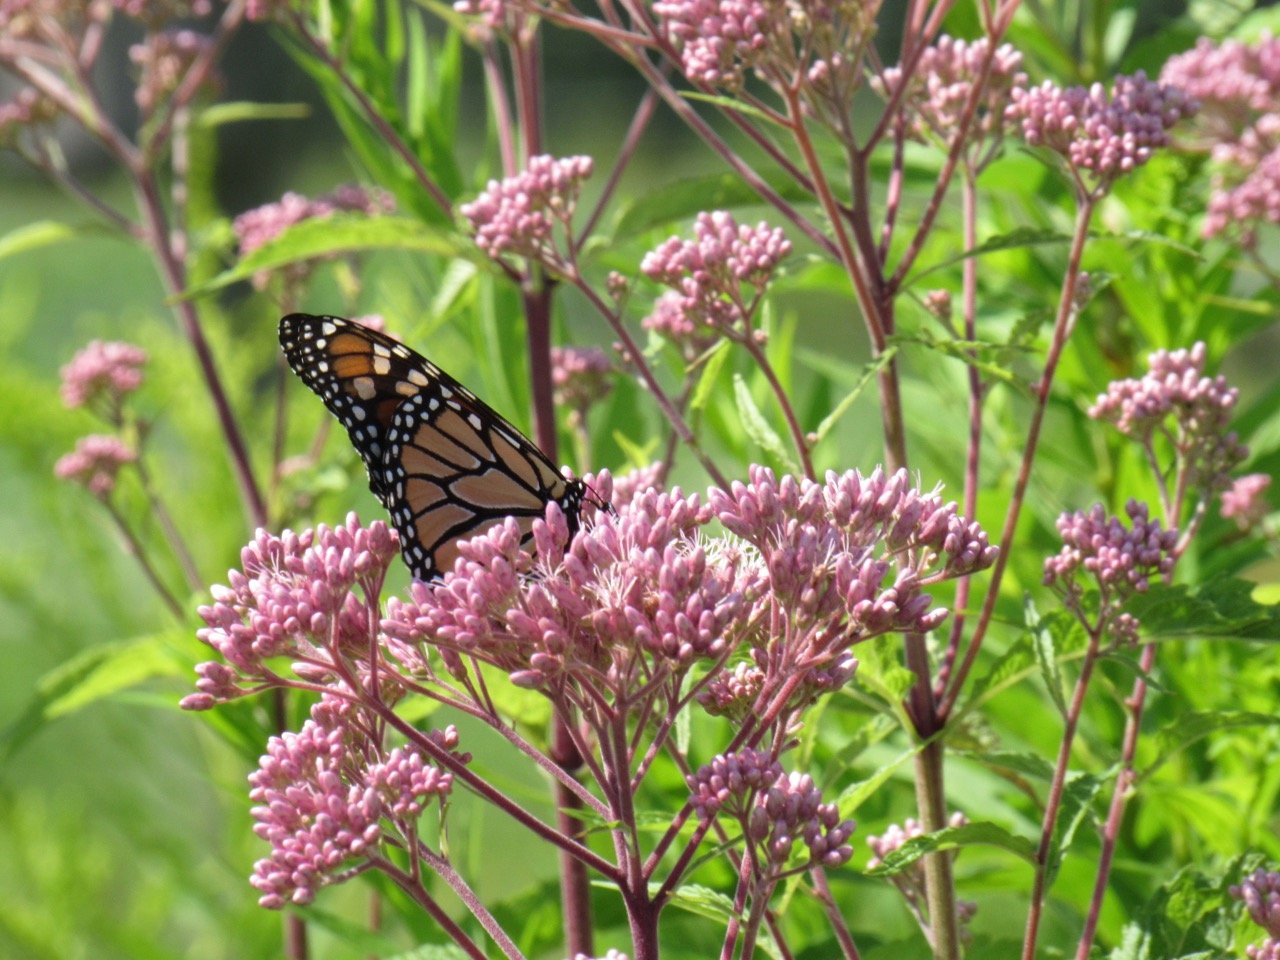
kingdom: Animalia
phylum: Arthropoda
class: Insecta
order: Lepidoptera
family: Nymphalidae
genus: Danaus
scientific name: Danaus plexippus
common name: Monarch
